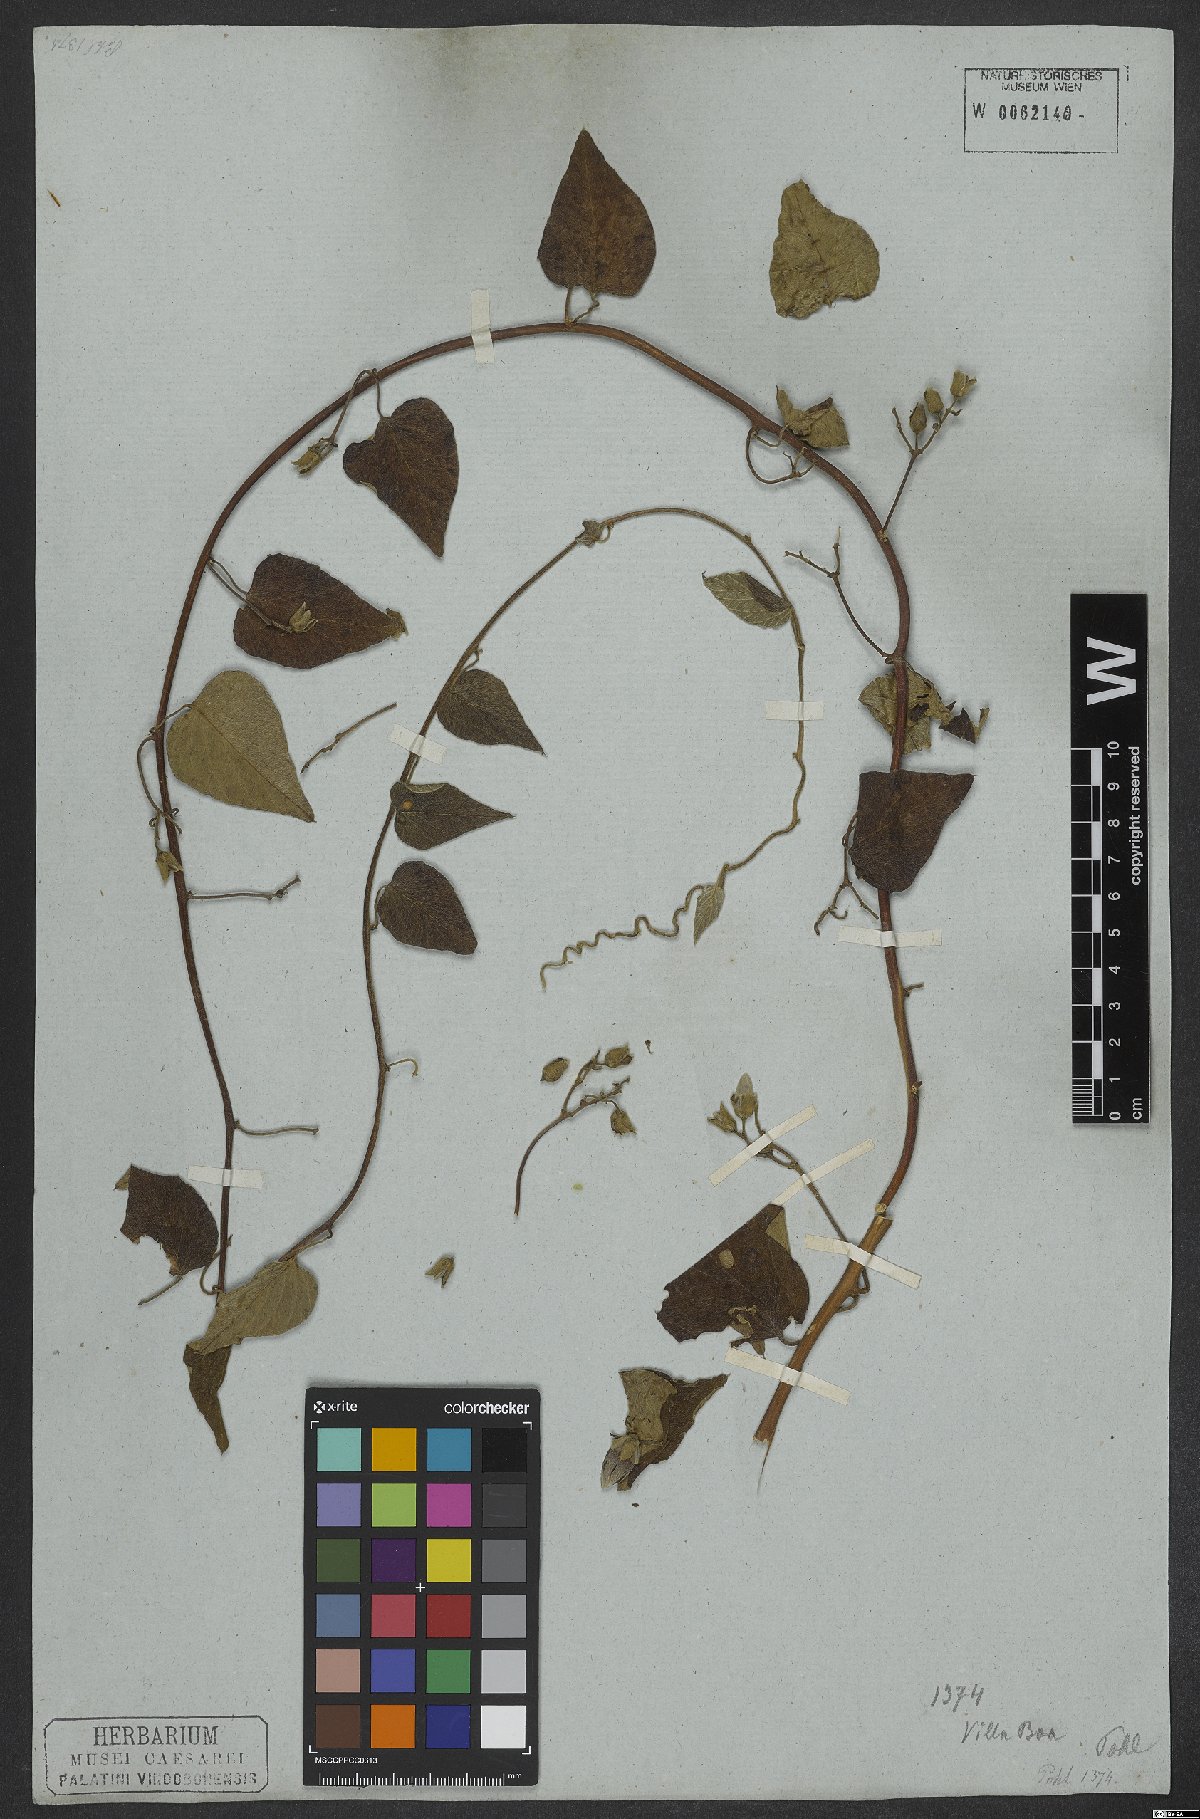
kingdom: Plantae
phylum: Tracheophyta
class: Magnoliopsida
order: Solanales
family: Convolvulaceae
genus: Ipomoea
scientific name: Ipomoea sericophylla
